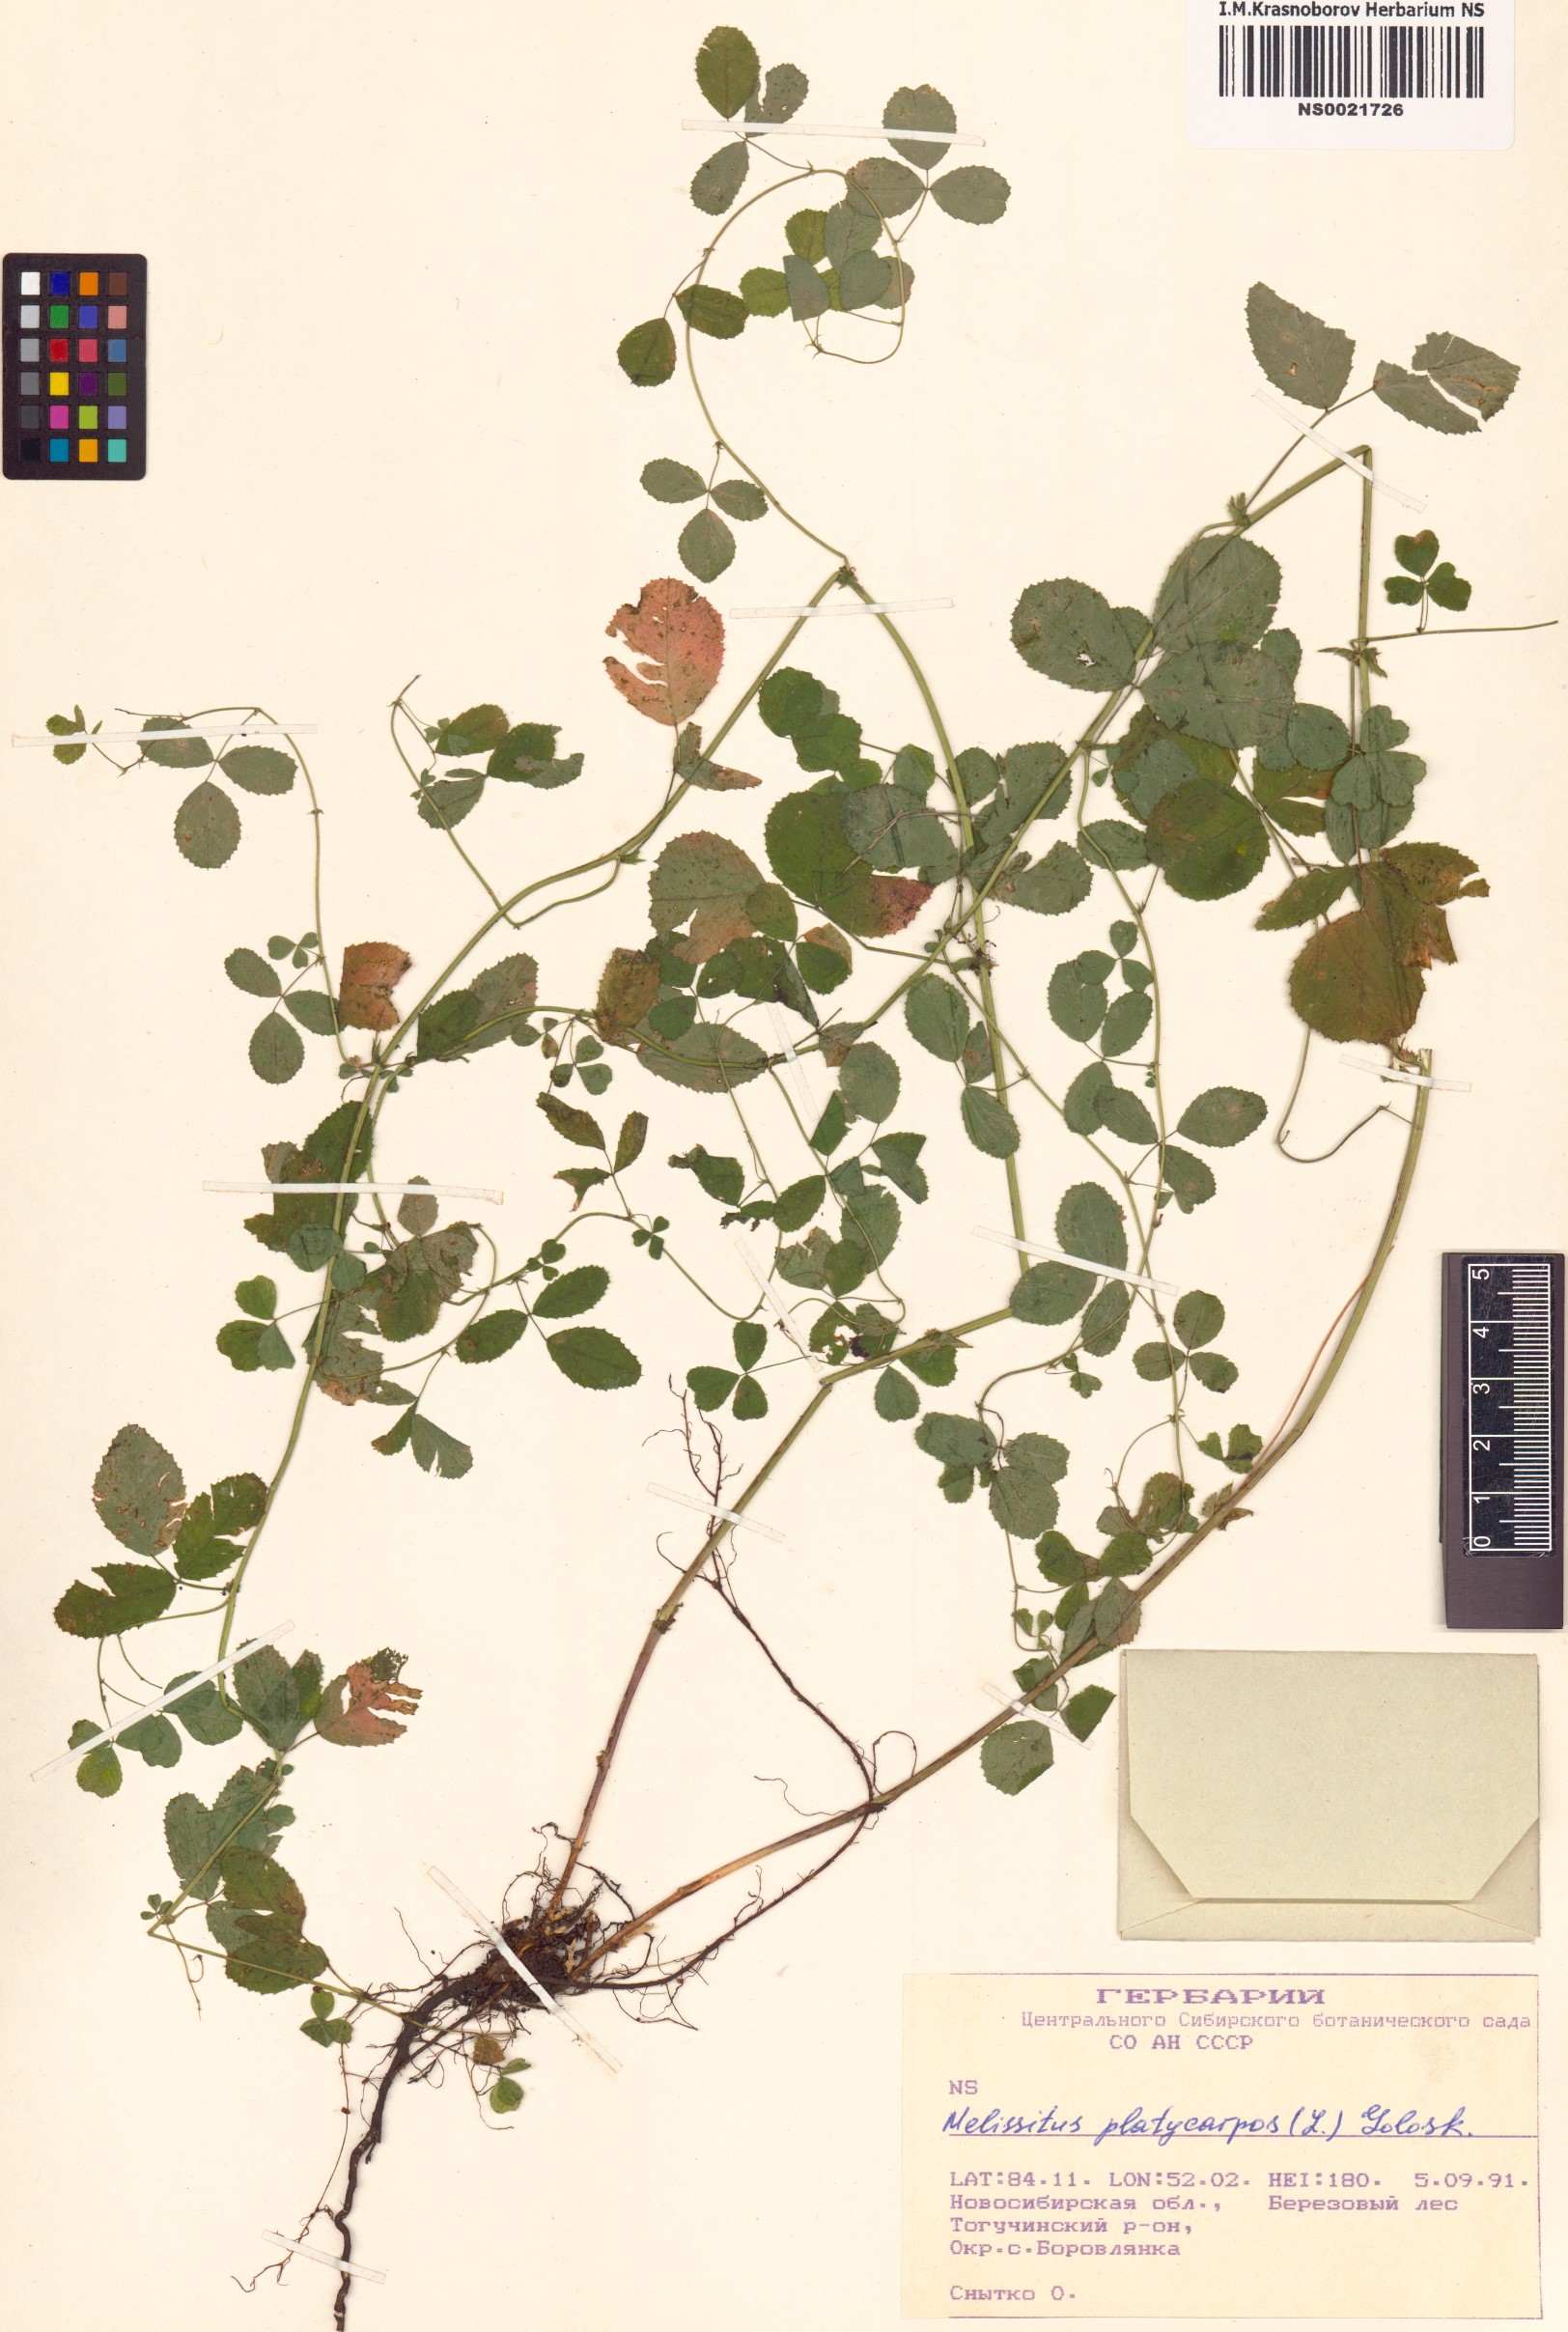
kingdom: Plantae
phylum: Tracheophyta
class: Magnoliopsida
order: Fabales
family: Fabaceae
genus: Medicago
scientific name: Medicago platycarpos
